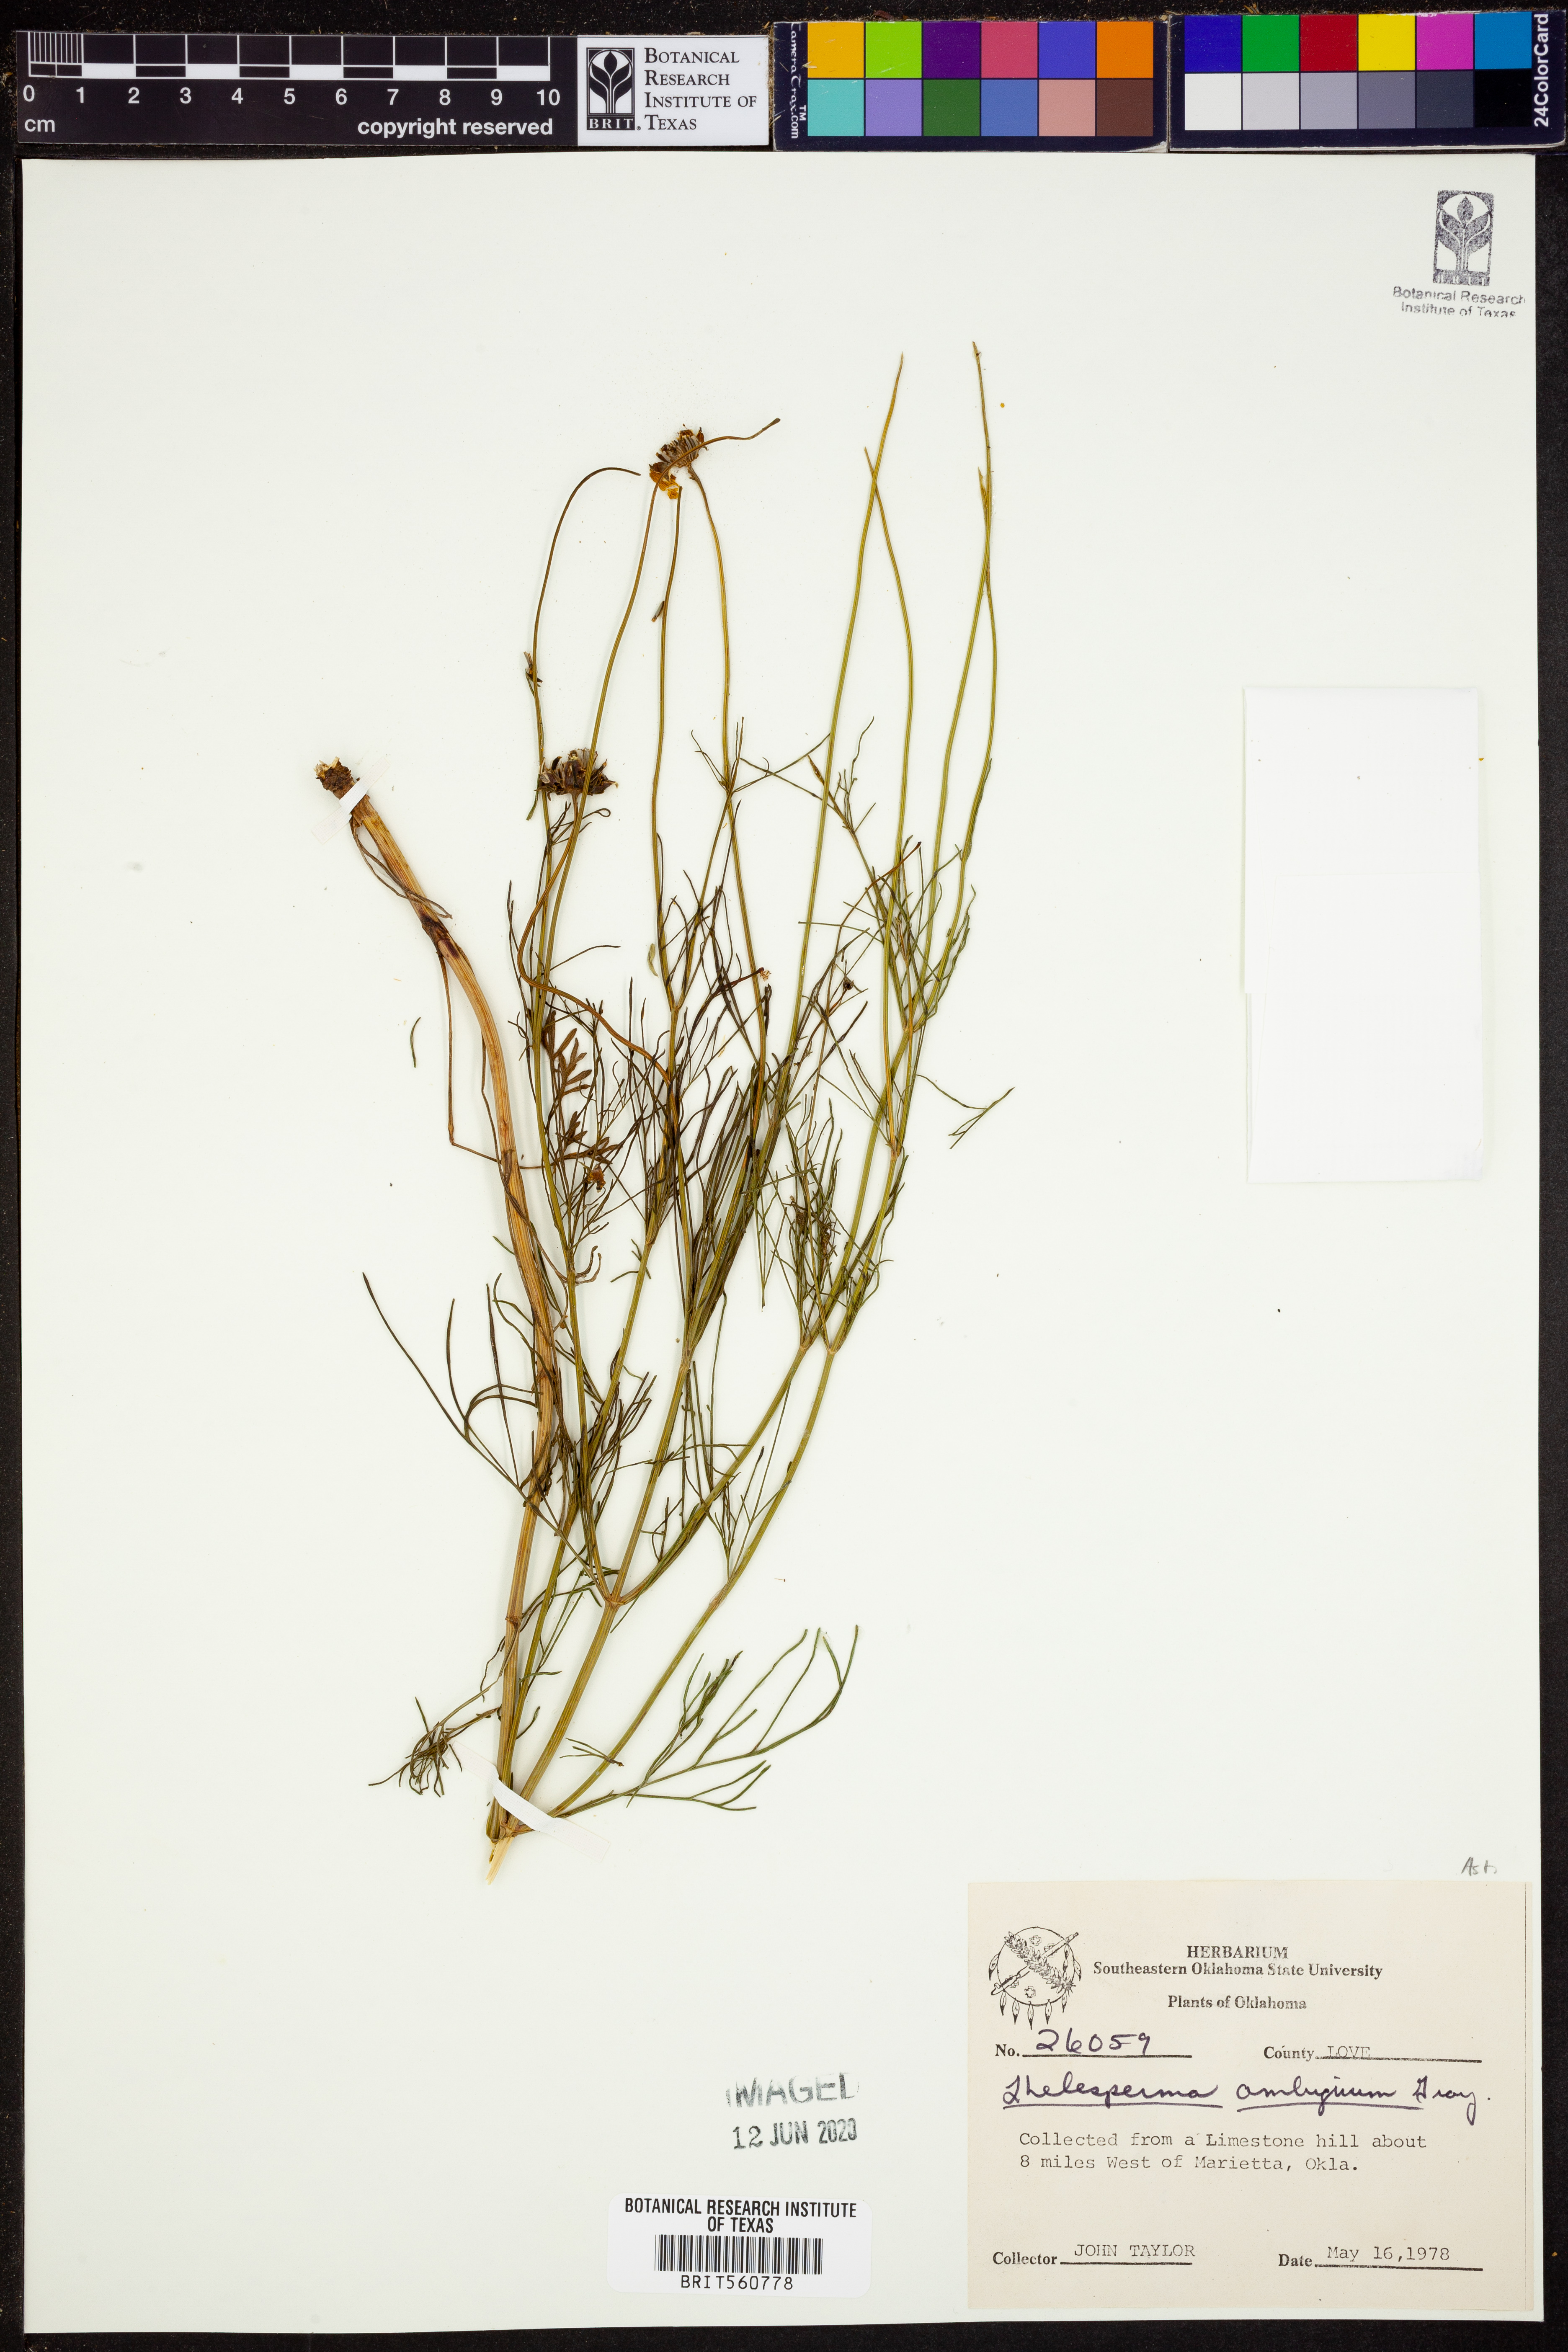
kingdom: Plantae
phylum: Tracheophyta
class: Magnoliopsida
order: Asterales
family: Asteraceae
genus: Thelesperma
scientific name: Thelesperma ambiguum
